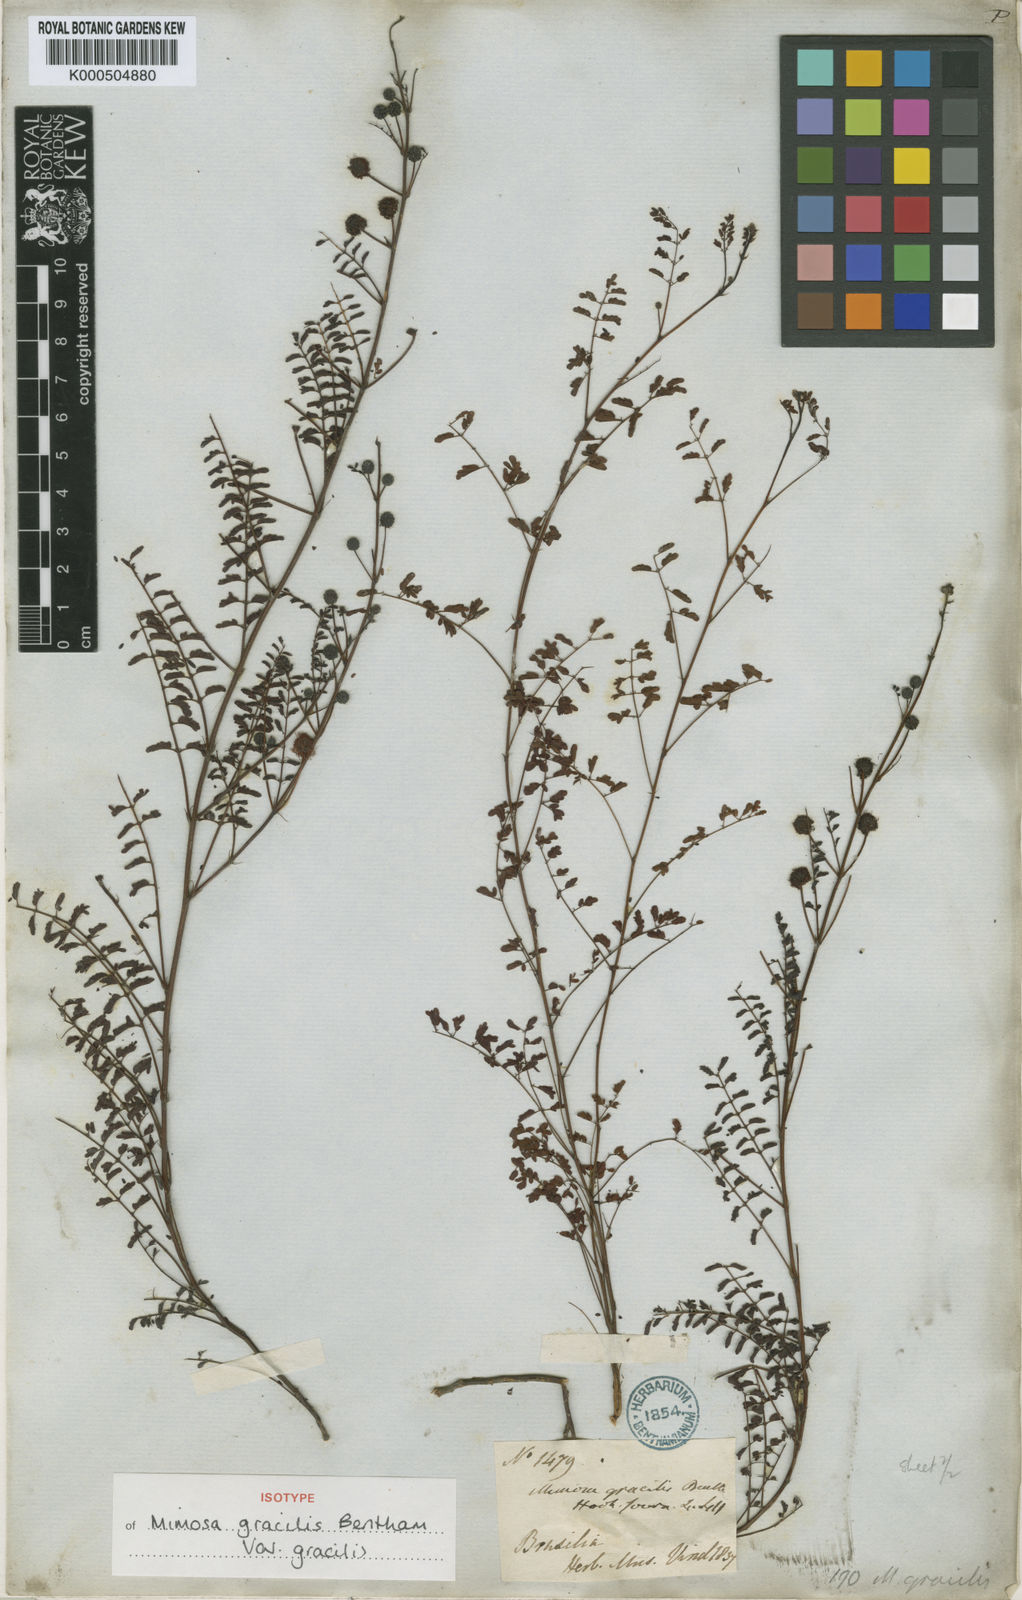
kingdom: Plantae
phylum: Tracheophyta
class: Magnoliopsida
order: Fabales
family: Fabaceae
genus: Mimosa
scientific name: Mimosa gracilis
